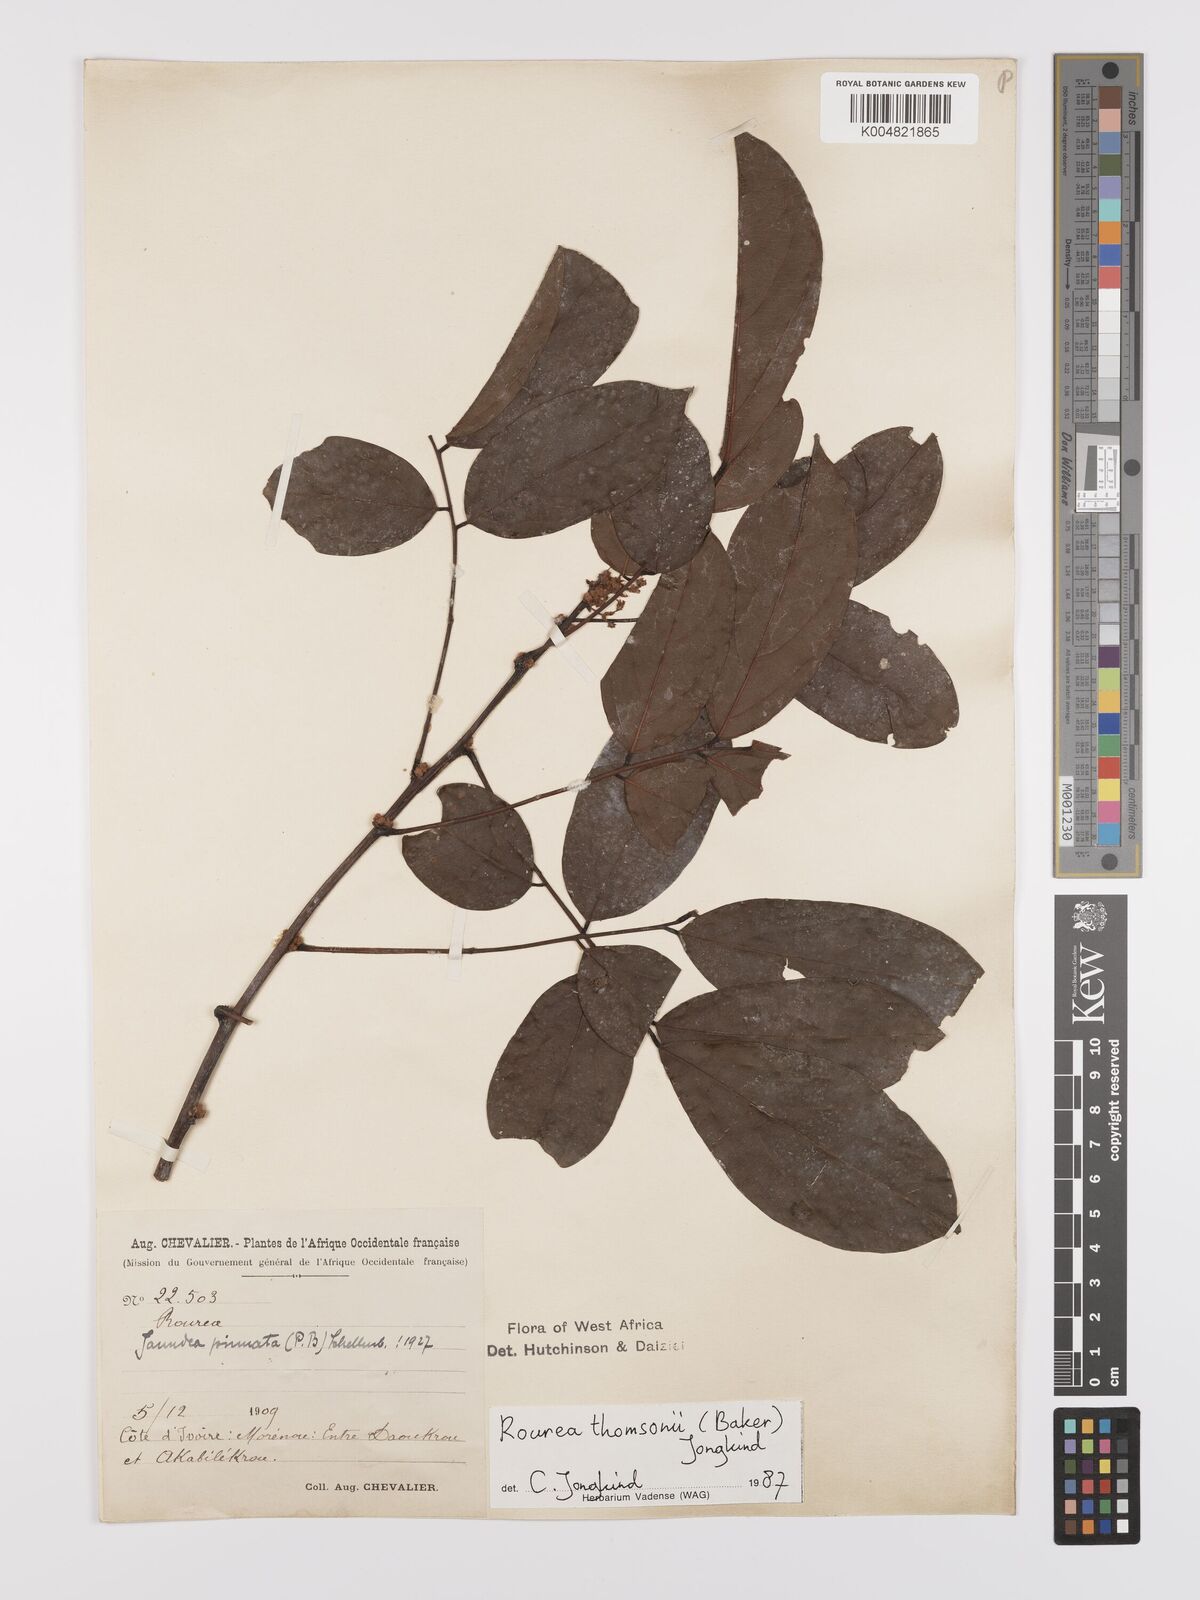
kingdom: Plantae
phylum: Tracheophyta
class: Magnoliopsida
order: Oxalidales
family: Connaraceae
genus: Rourea
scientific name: Rourea pinnata
